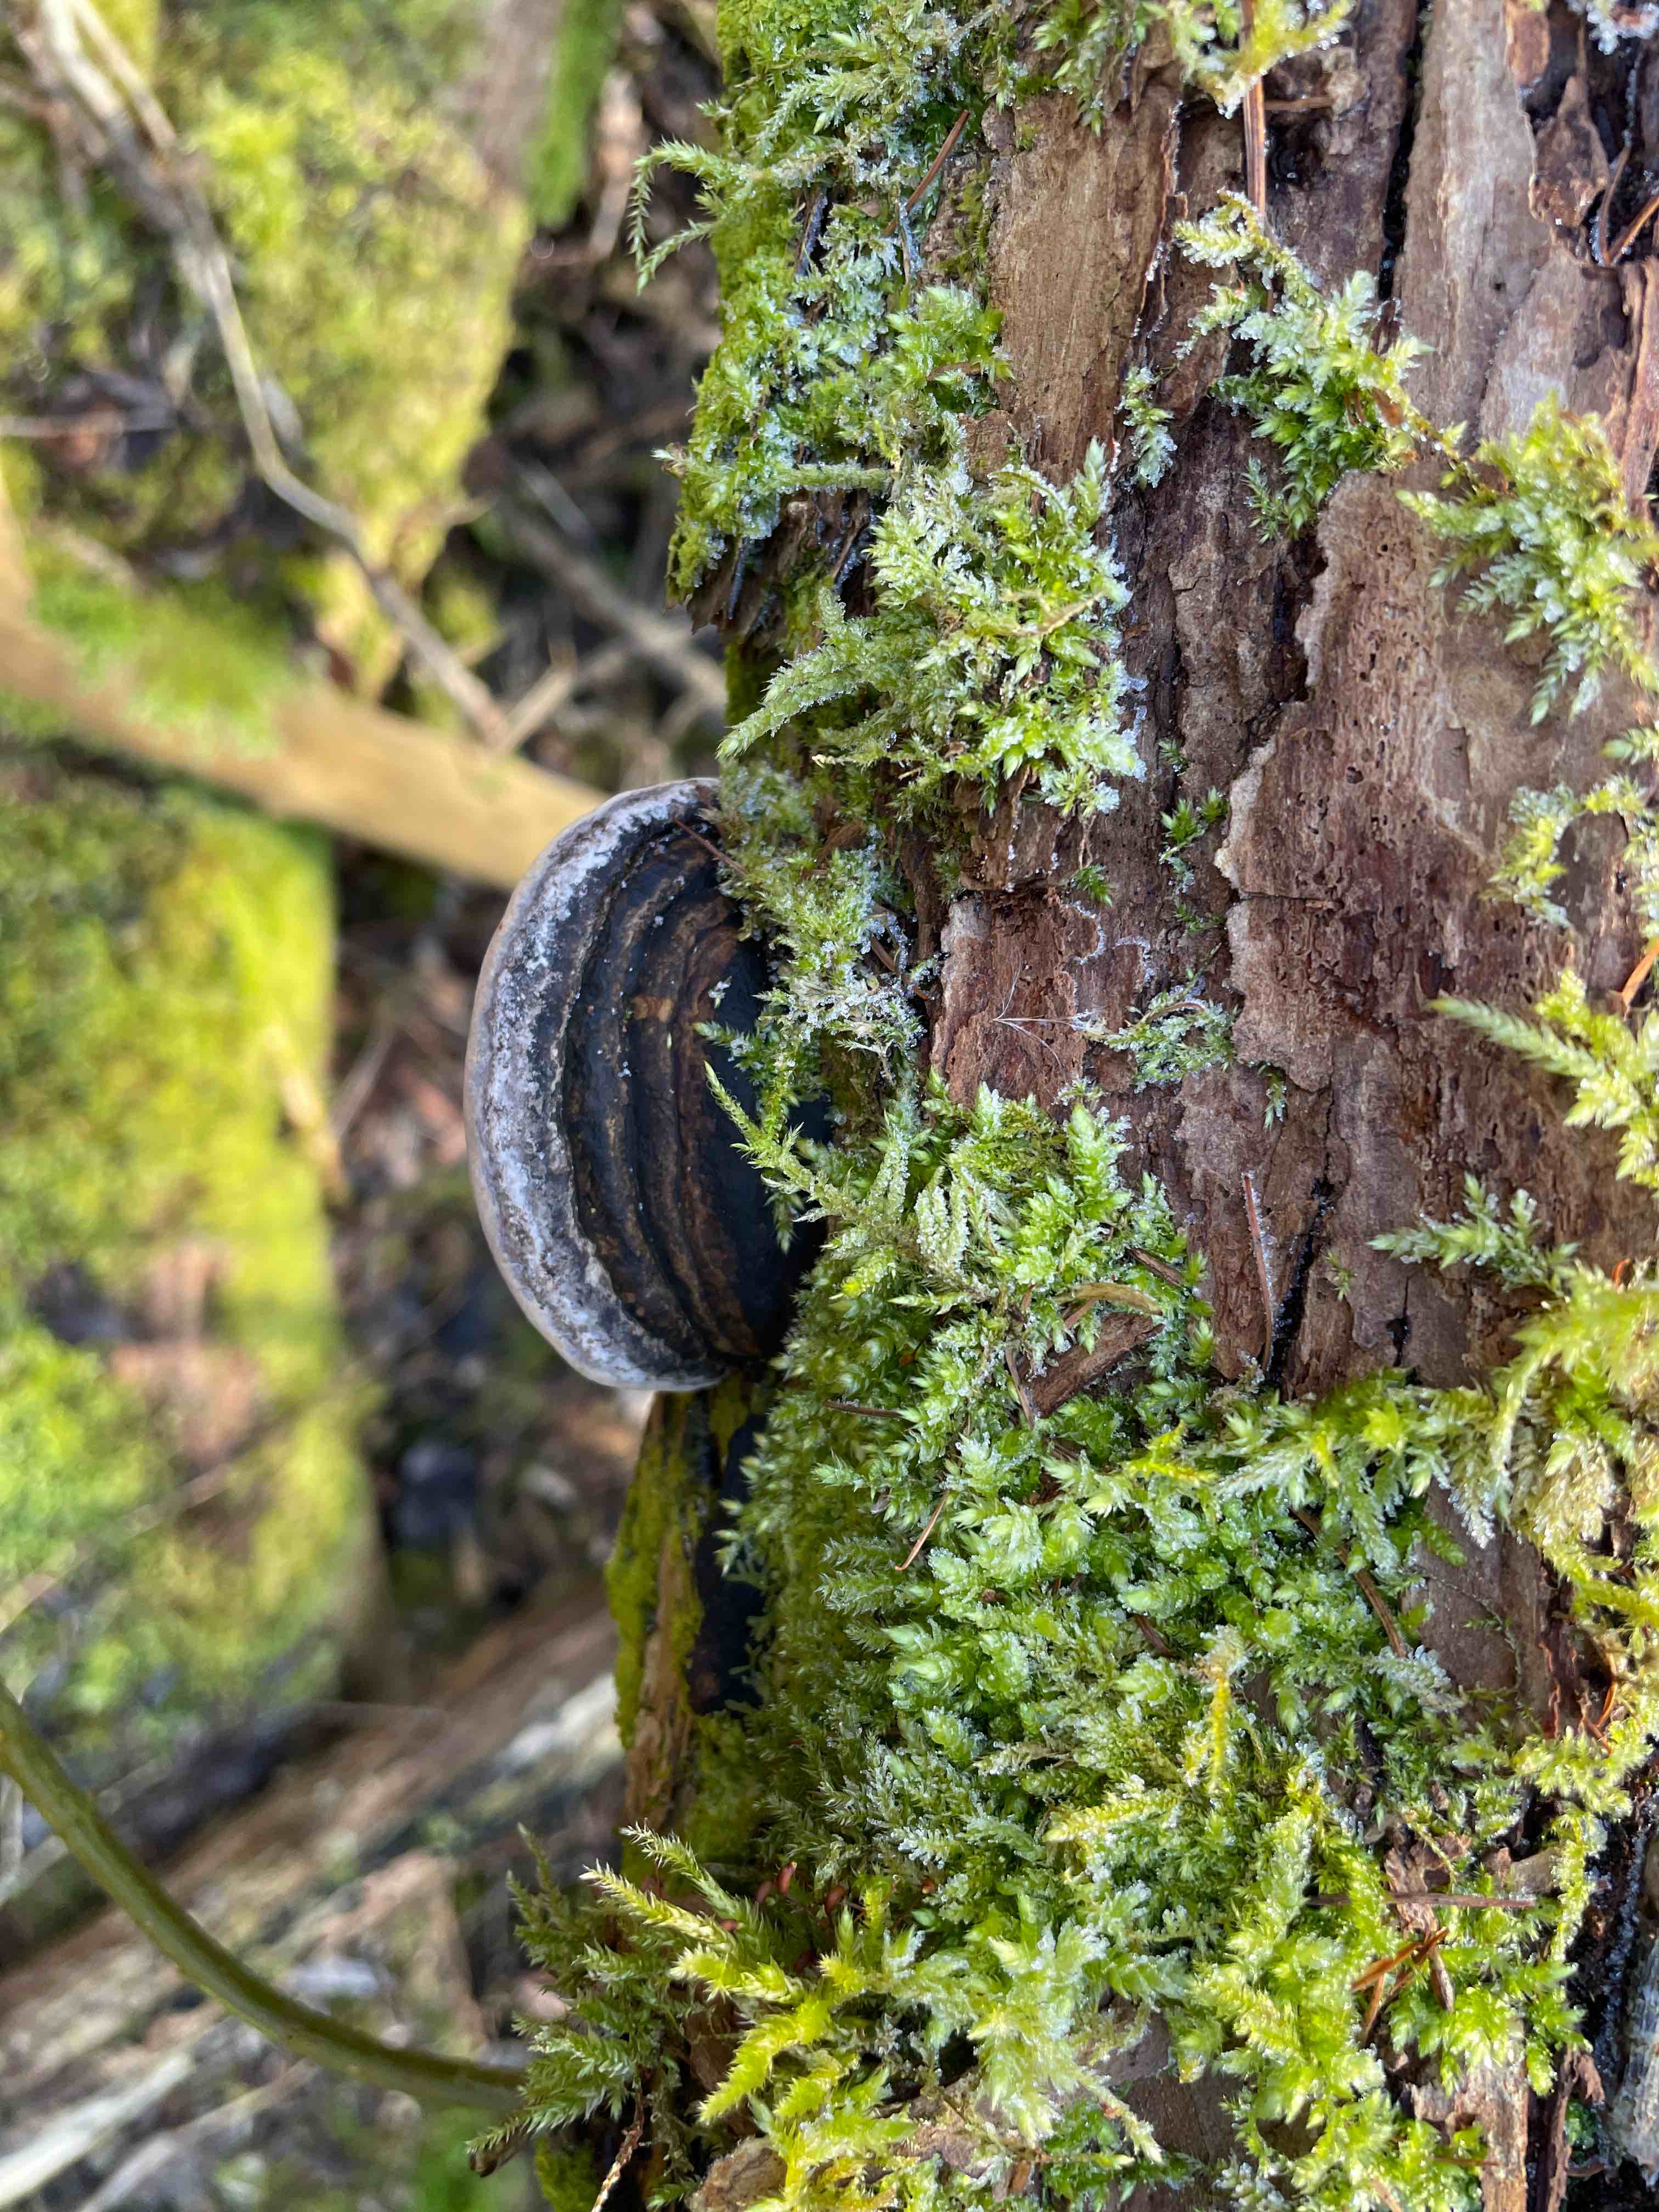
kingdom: Fungi
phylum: Basidiomycota
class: Agaricomycetes
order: Hymenochaetales
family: Hymenochaetaceae
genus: Phellinus
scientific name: Phellinus igniarius
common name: almindelig ildporesvamp
